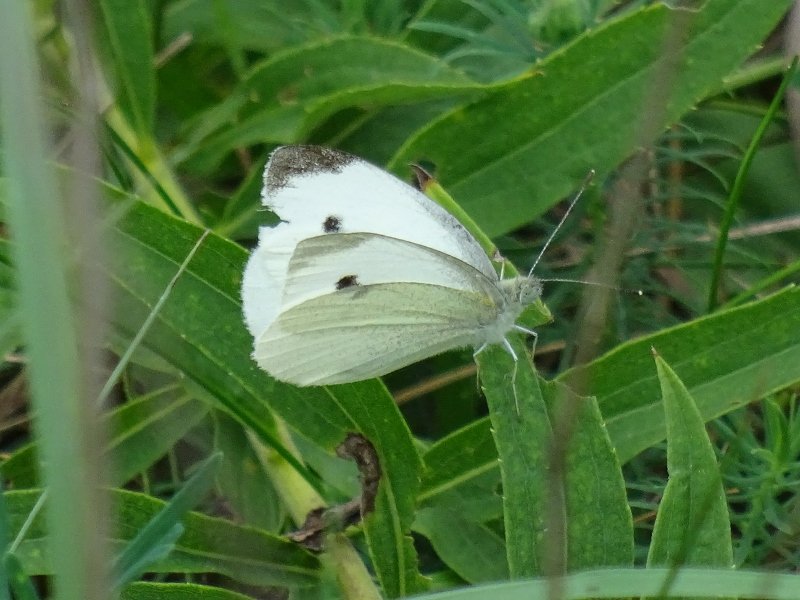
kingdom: Animalia
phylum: Arthropoda
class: Insecta
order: Lepidoptera
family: Pieridae
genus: Pieris
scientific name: Pieris rapae
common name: Cabbage White
